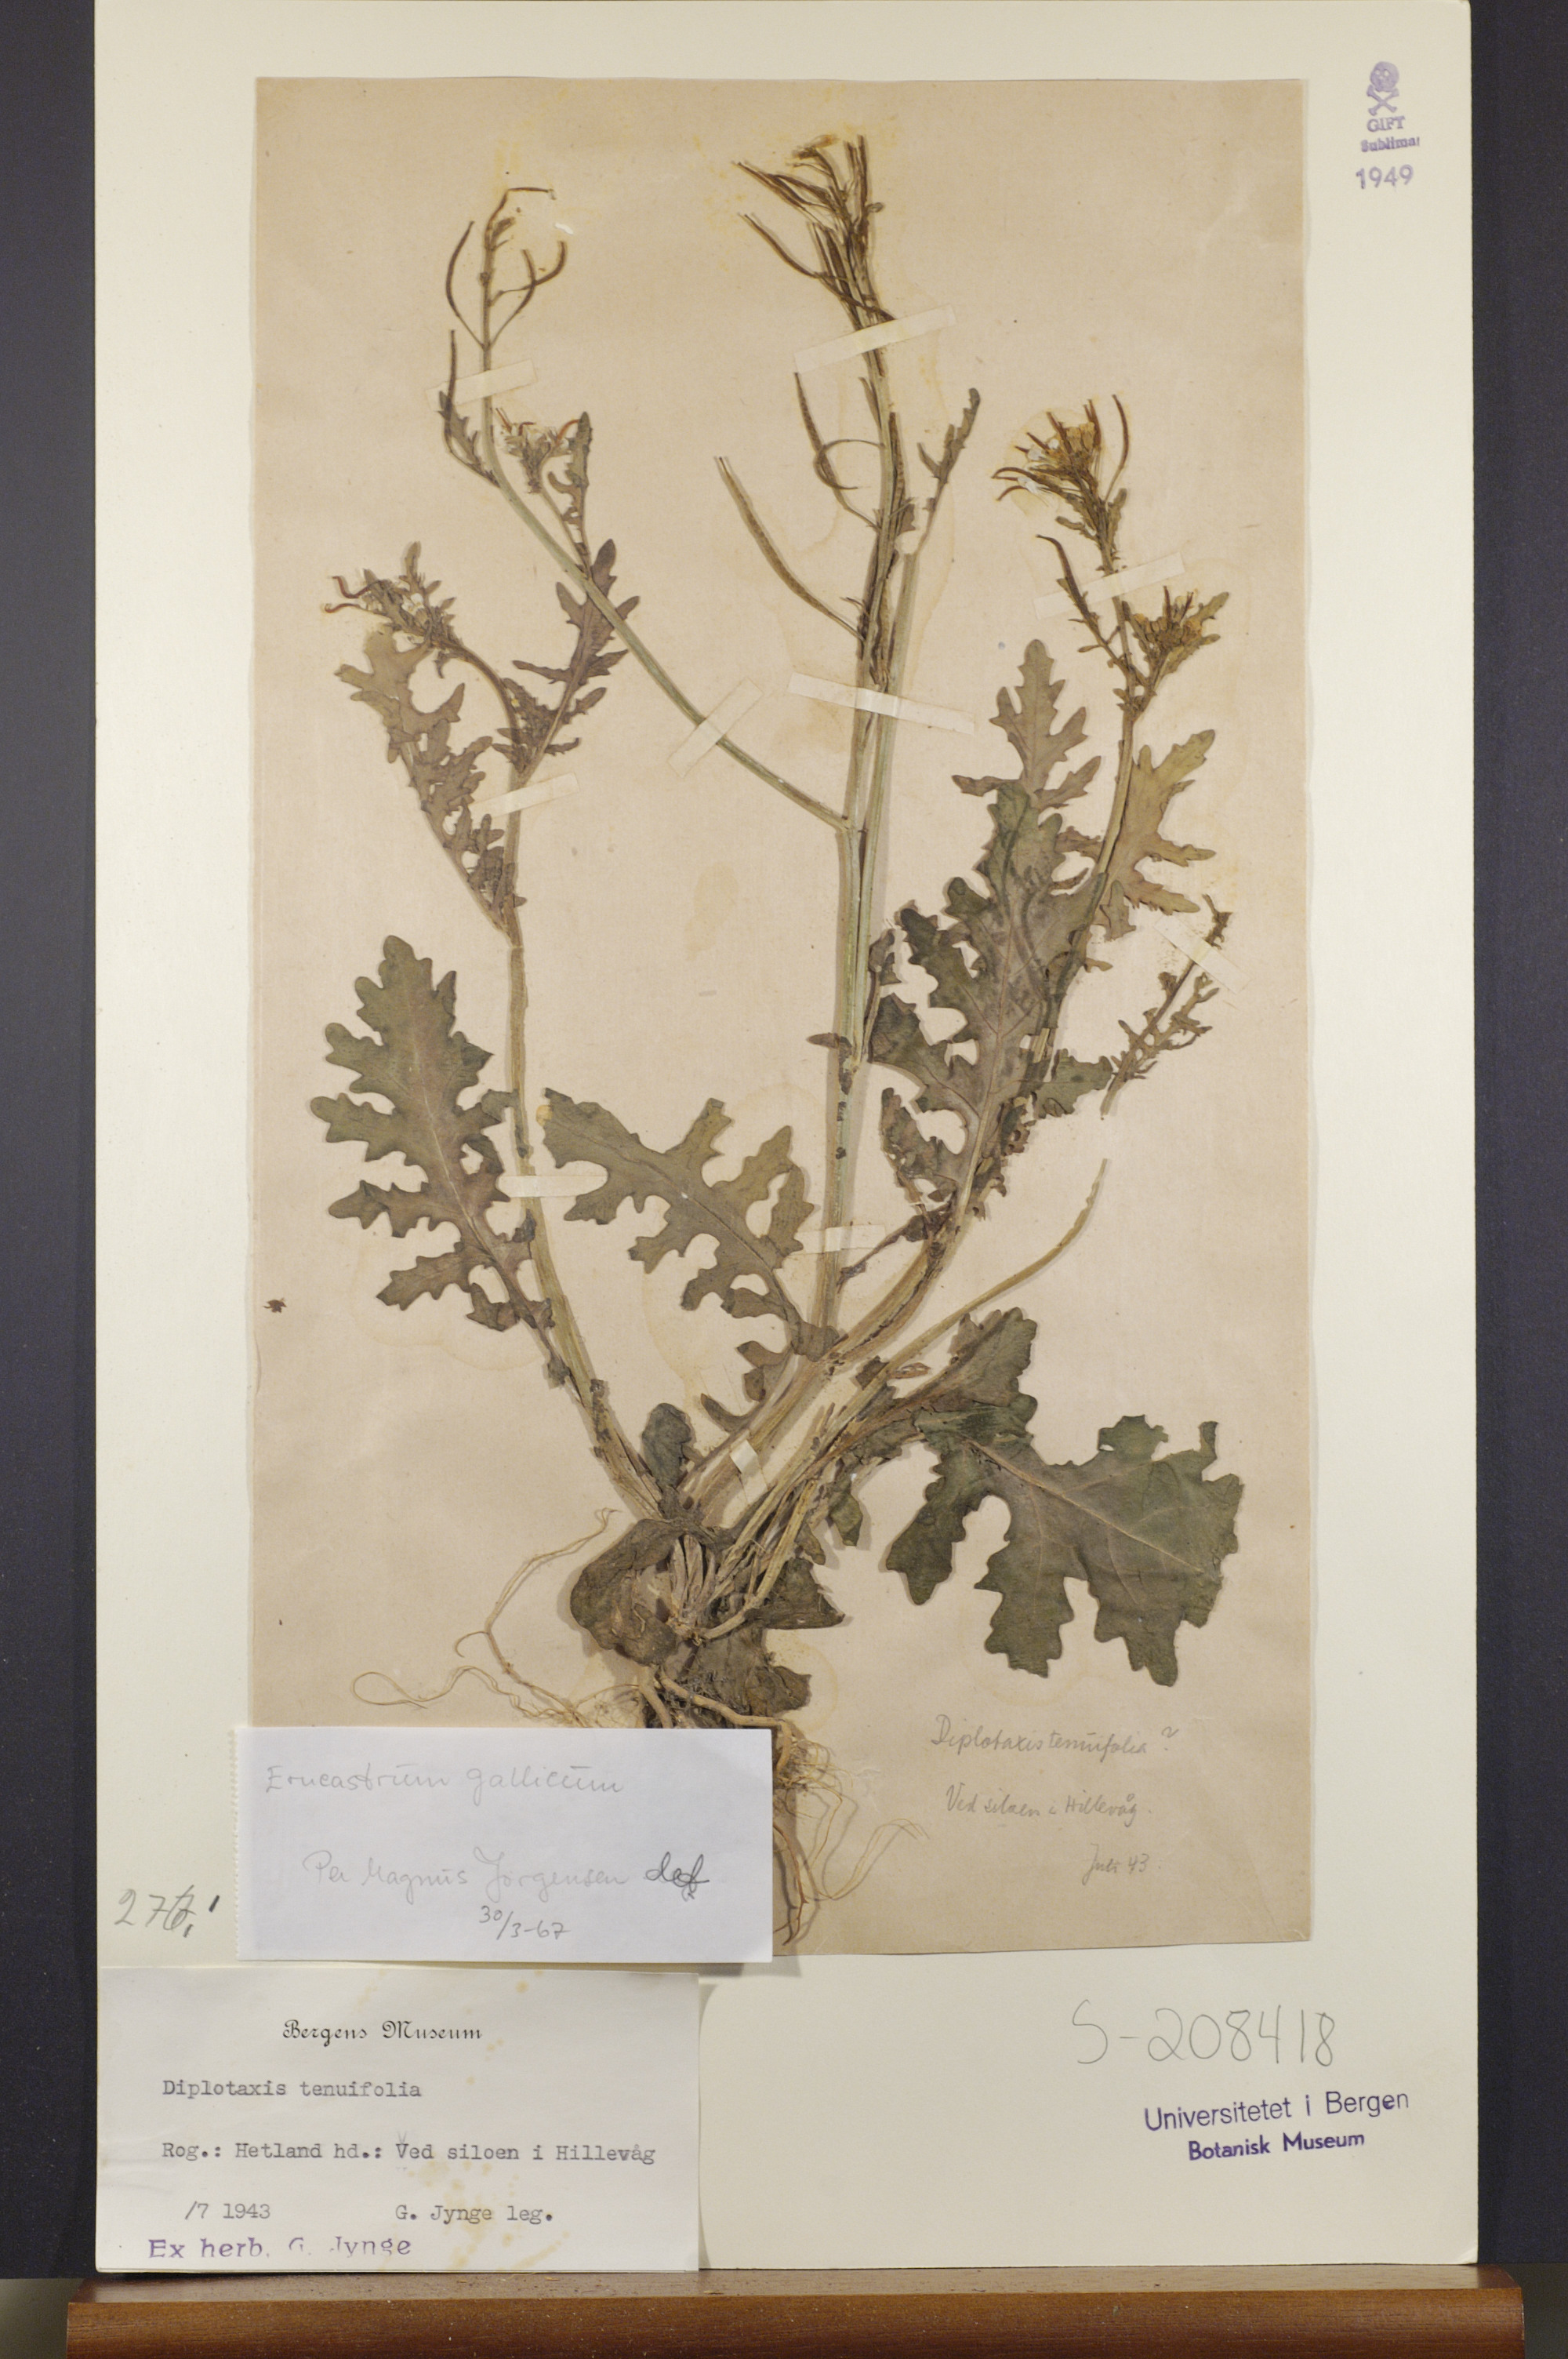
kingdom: Plantae
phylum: Tracheophyta
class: Magnoliopsida
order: Brassicales
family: Brassicaceae
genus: Erucastrum
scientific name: Erucastrum gallicum
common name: Hairy rocket
